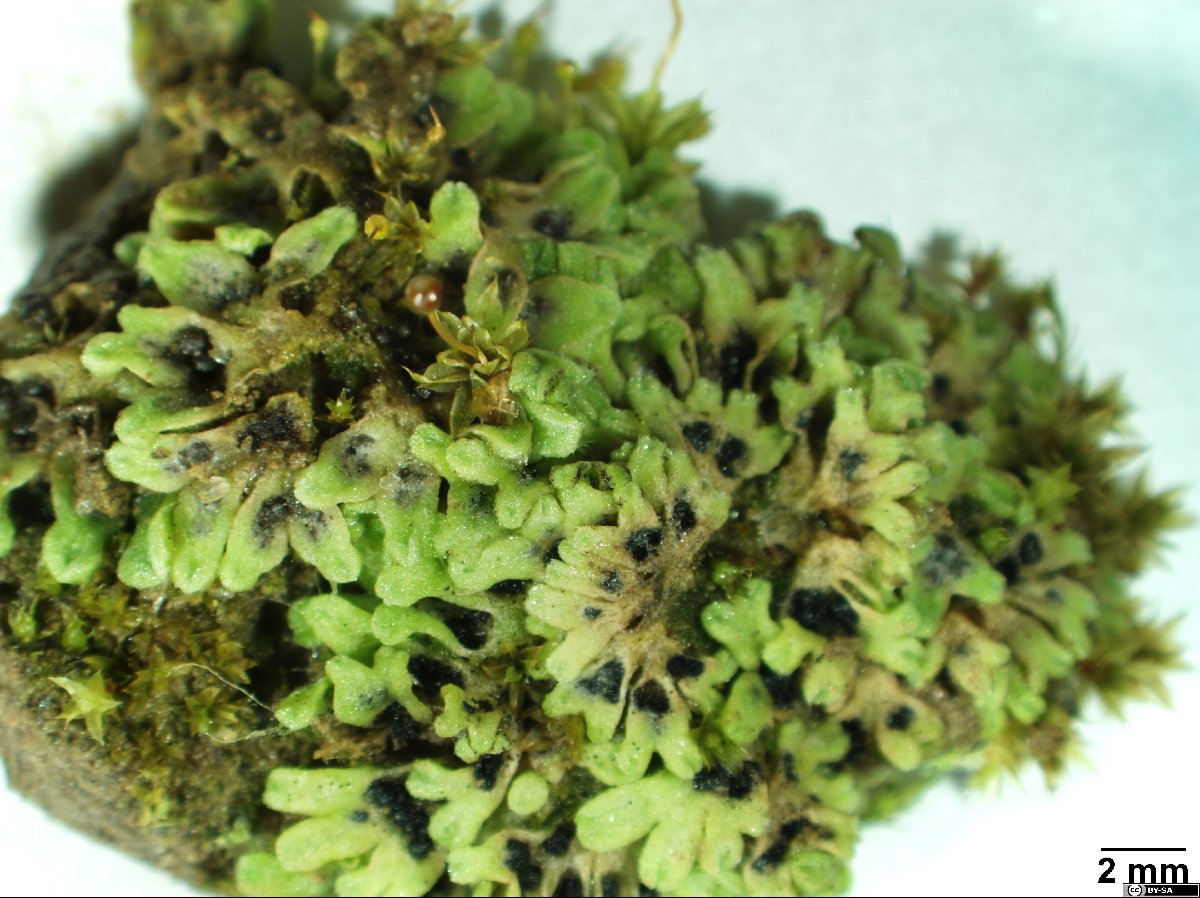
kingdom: Plantae
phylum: Marchantiophyta
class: Marchantiopsida
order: Marchantiales
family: Ricciaceae
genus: Riccia
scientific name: Riccia glauca
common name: Glaucous crystalwort
